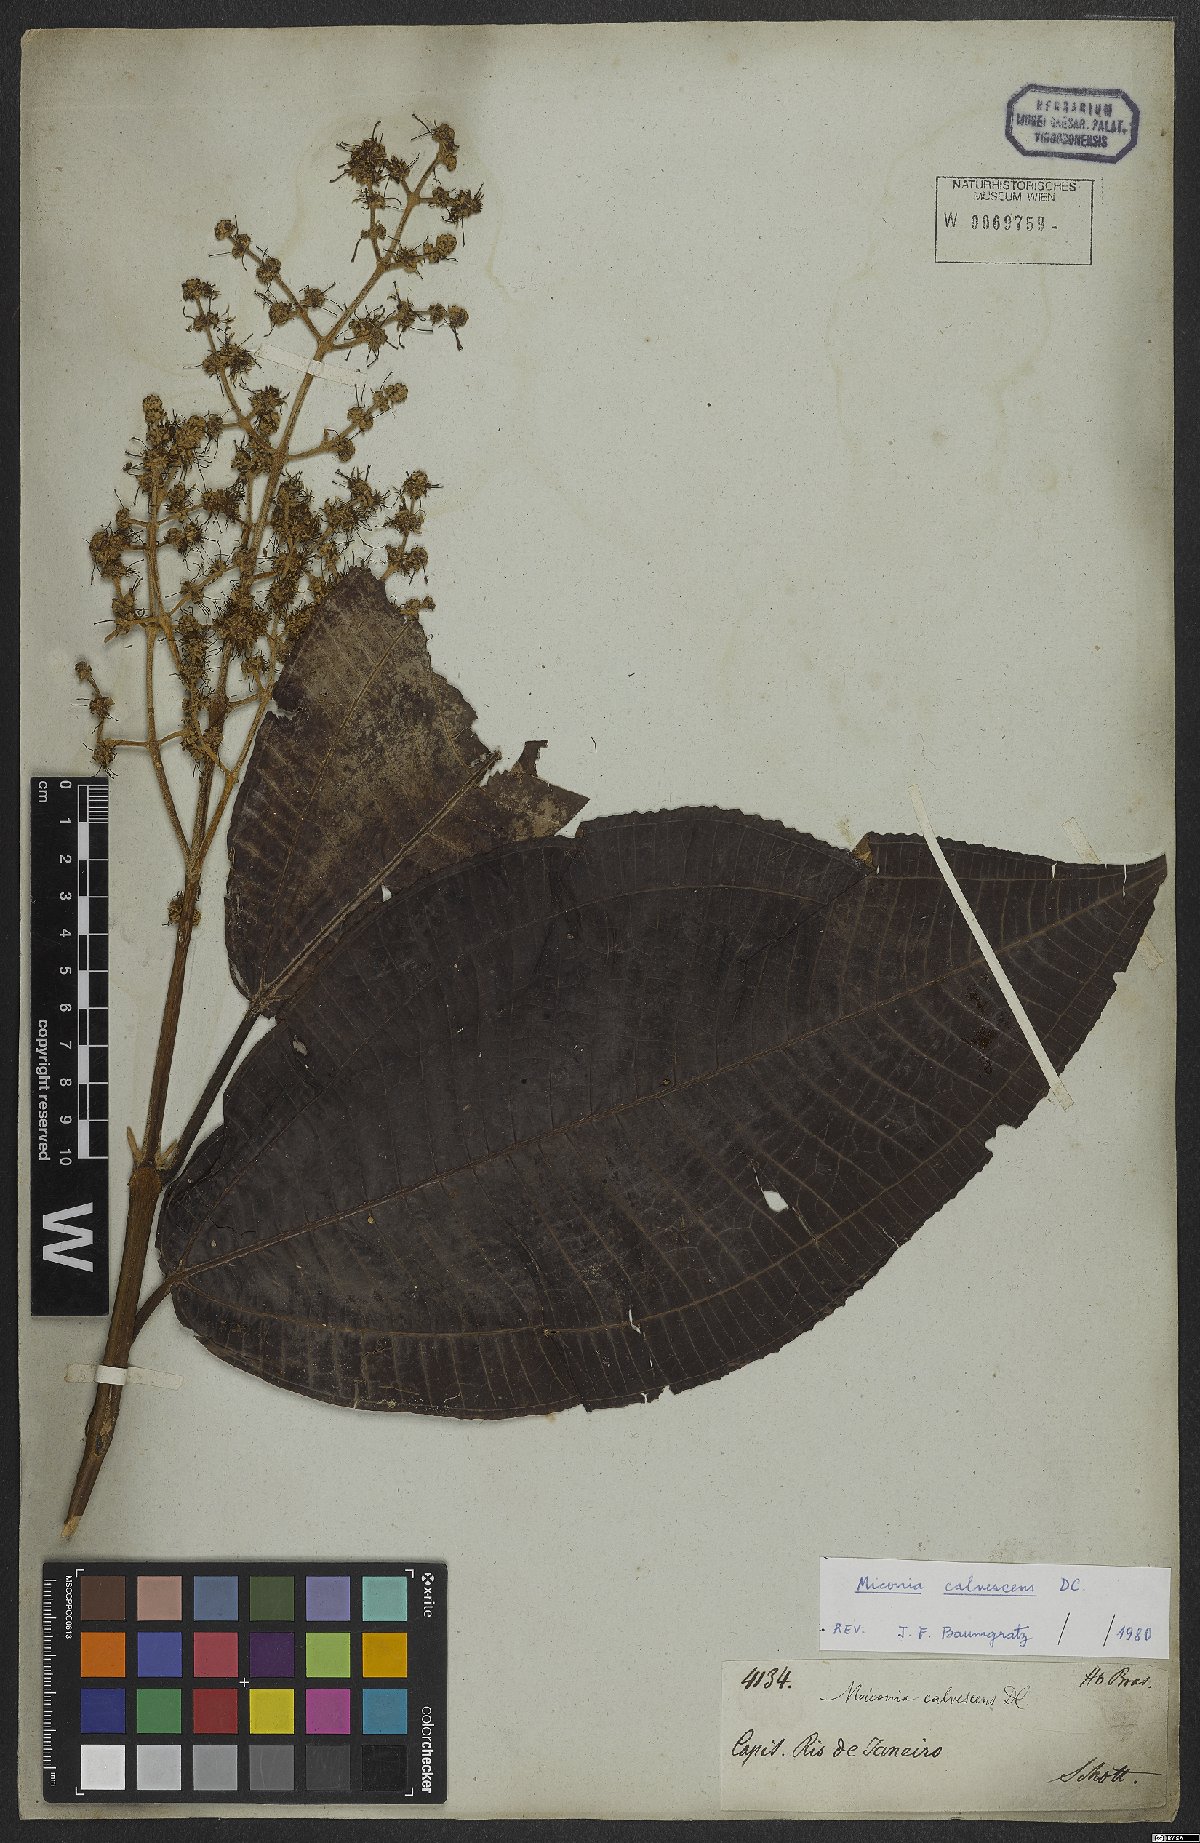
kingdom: Plantae
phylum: Tracheophyta
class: Magnoliopsida
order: Myrtales
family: Melastomataceae
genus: Miconia
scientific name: Miconia calvescens
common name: Purple plague
